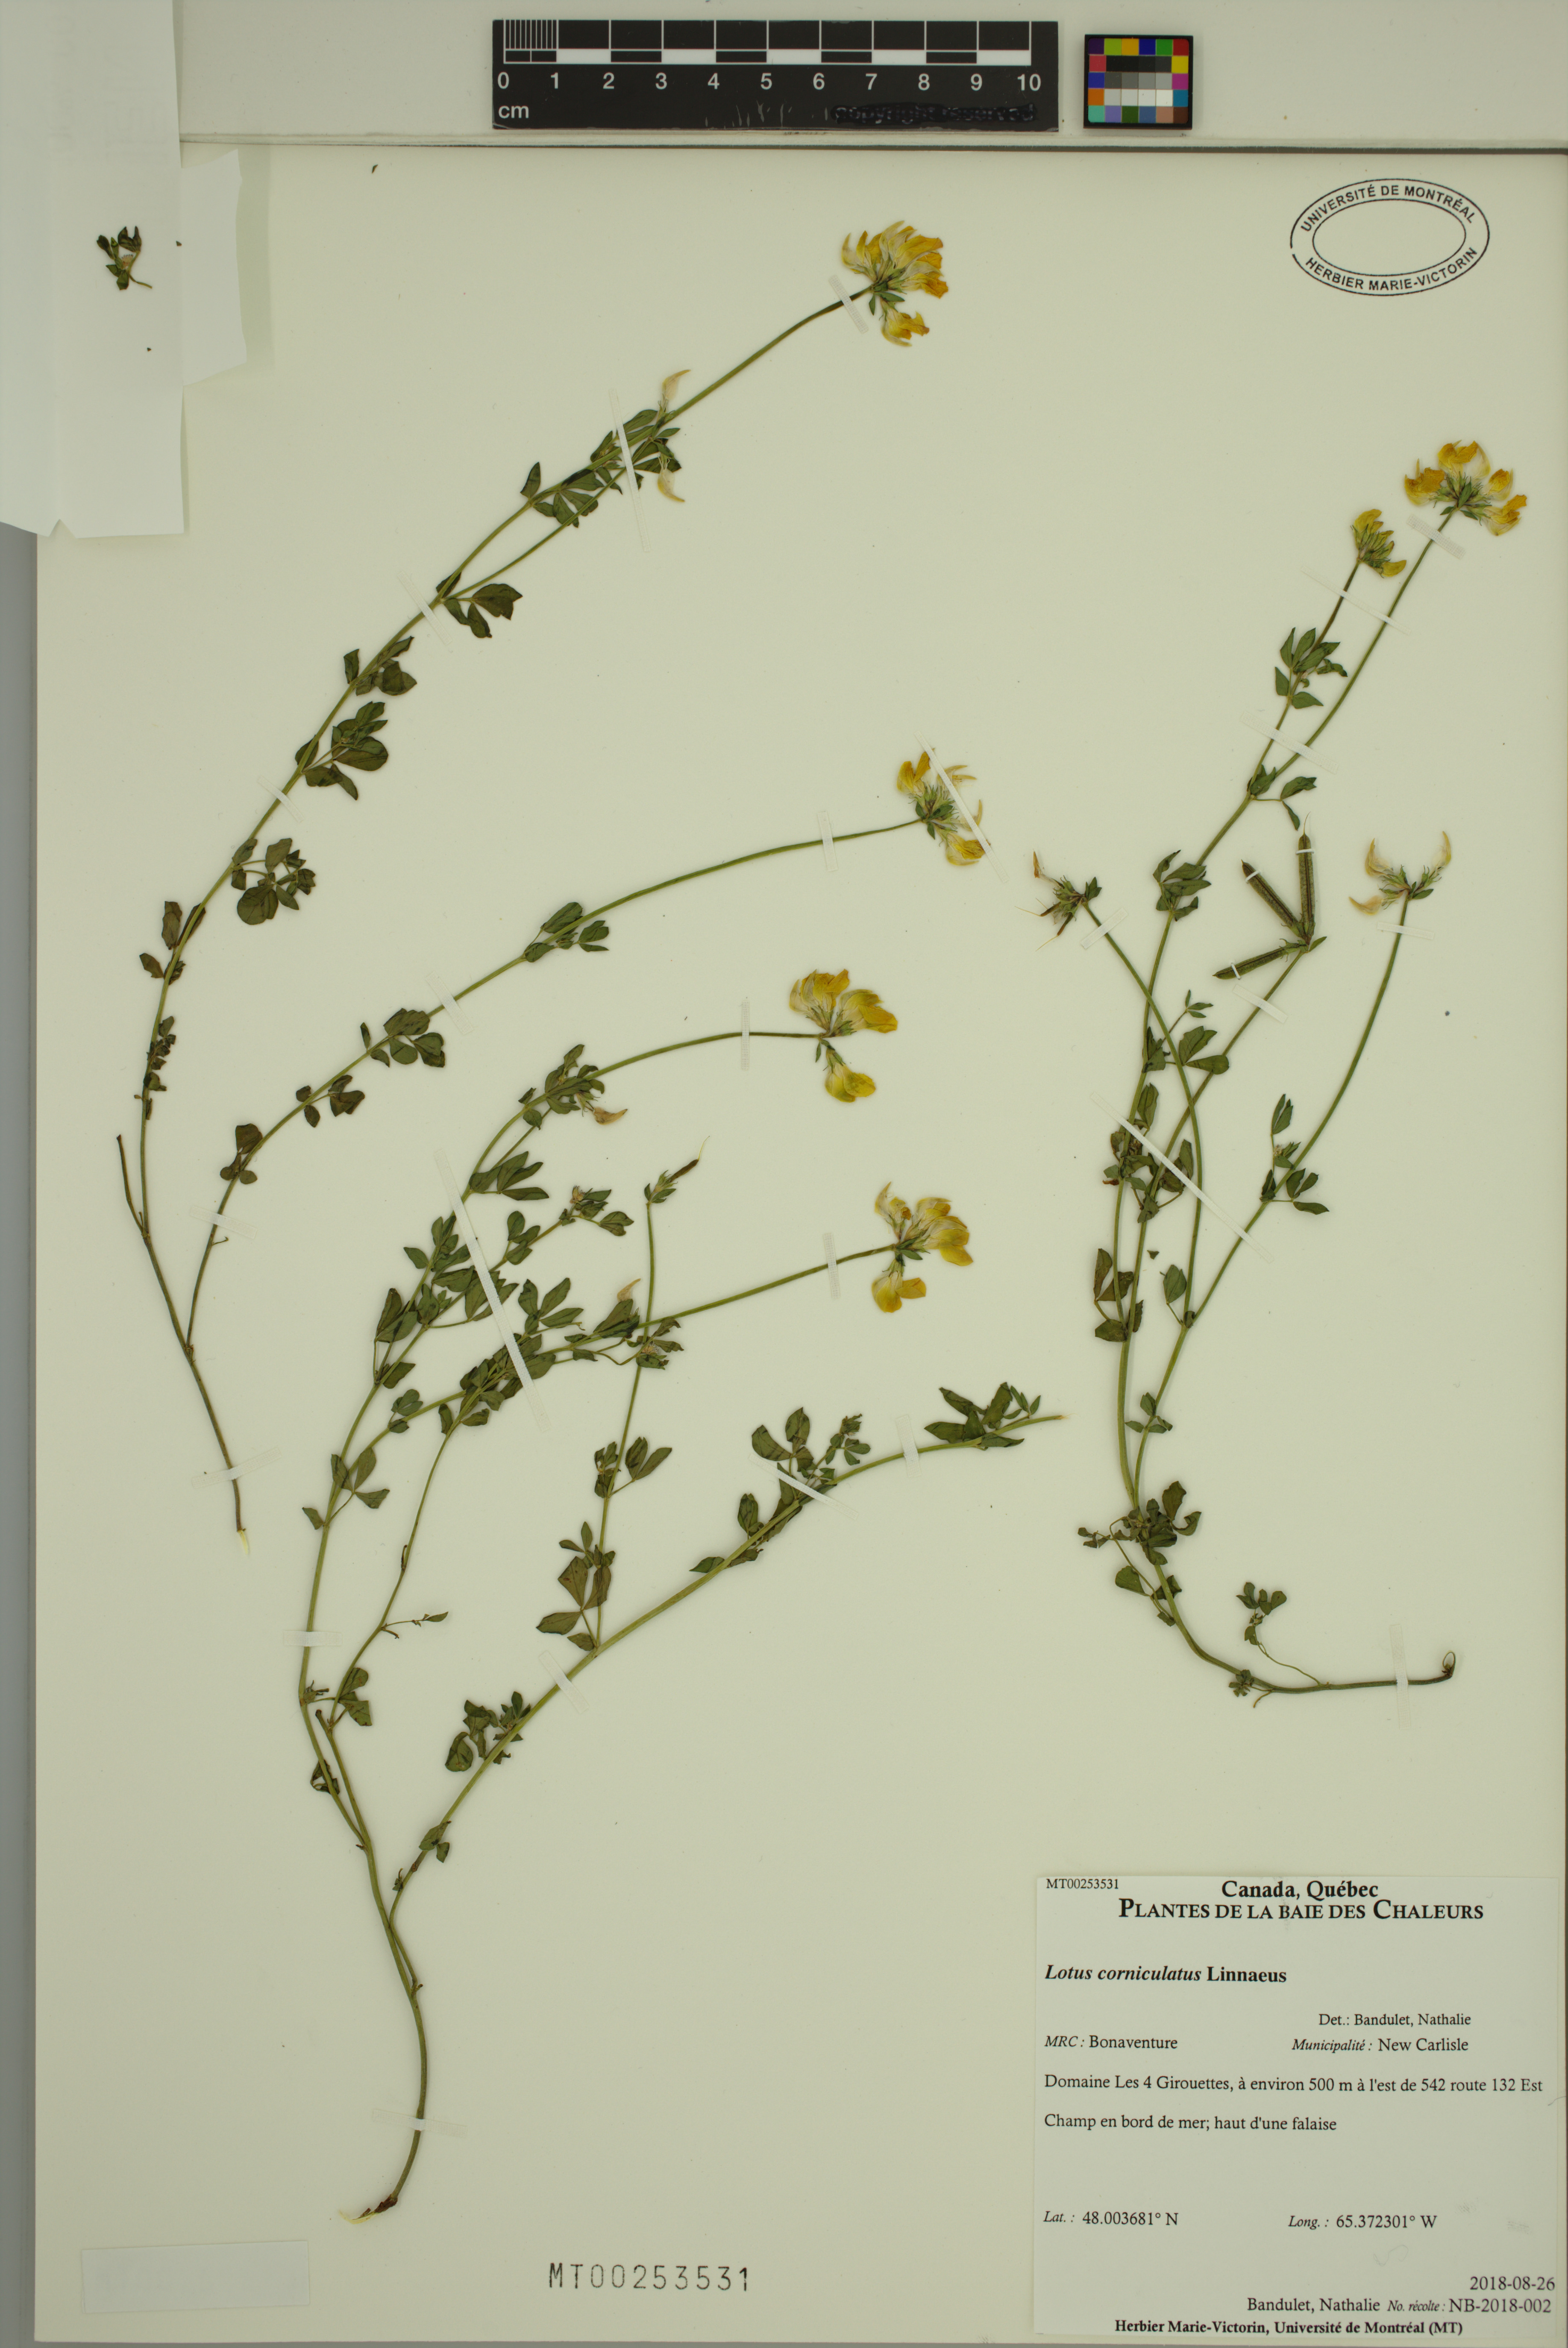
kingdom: Plantae
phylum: Tracheophyta
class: Magnoliopsida
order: Fabales
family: Fabaceae
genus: Lotus
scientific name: Lotus corniculatus
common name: Common bird's-foot-trefoil
